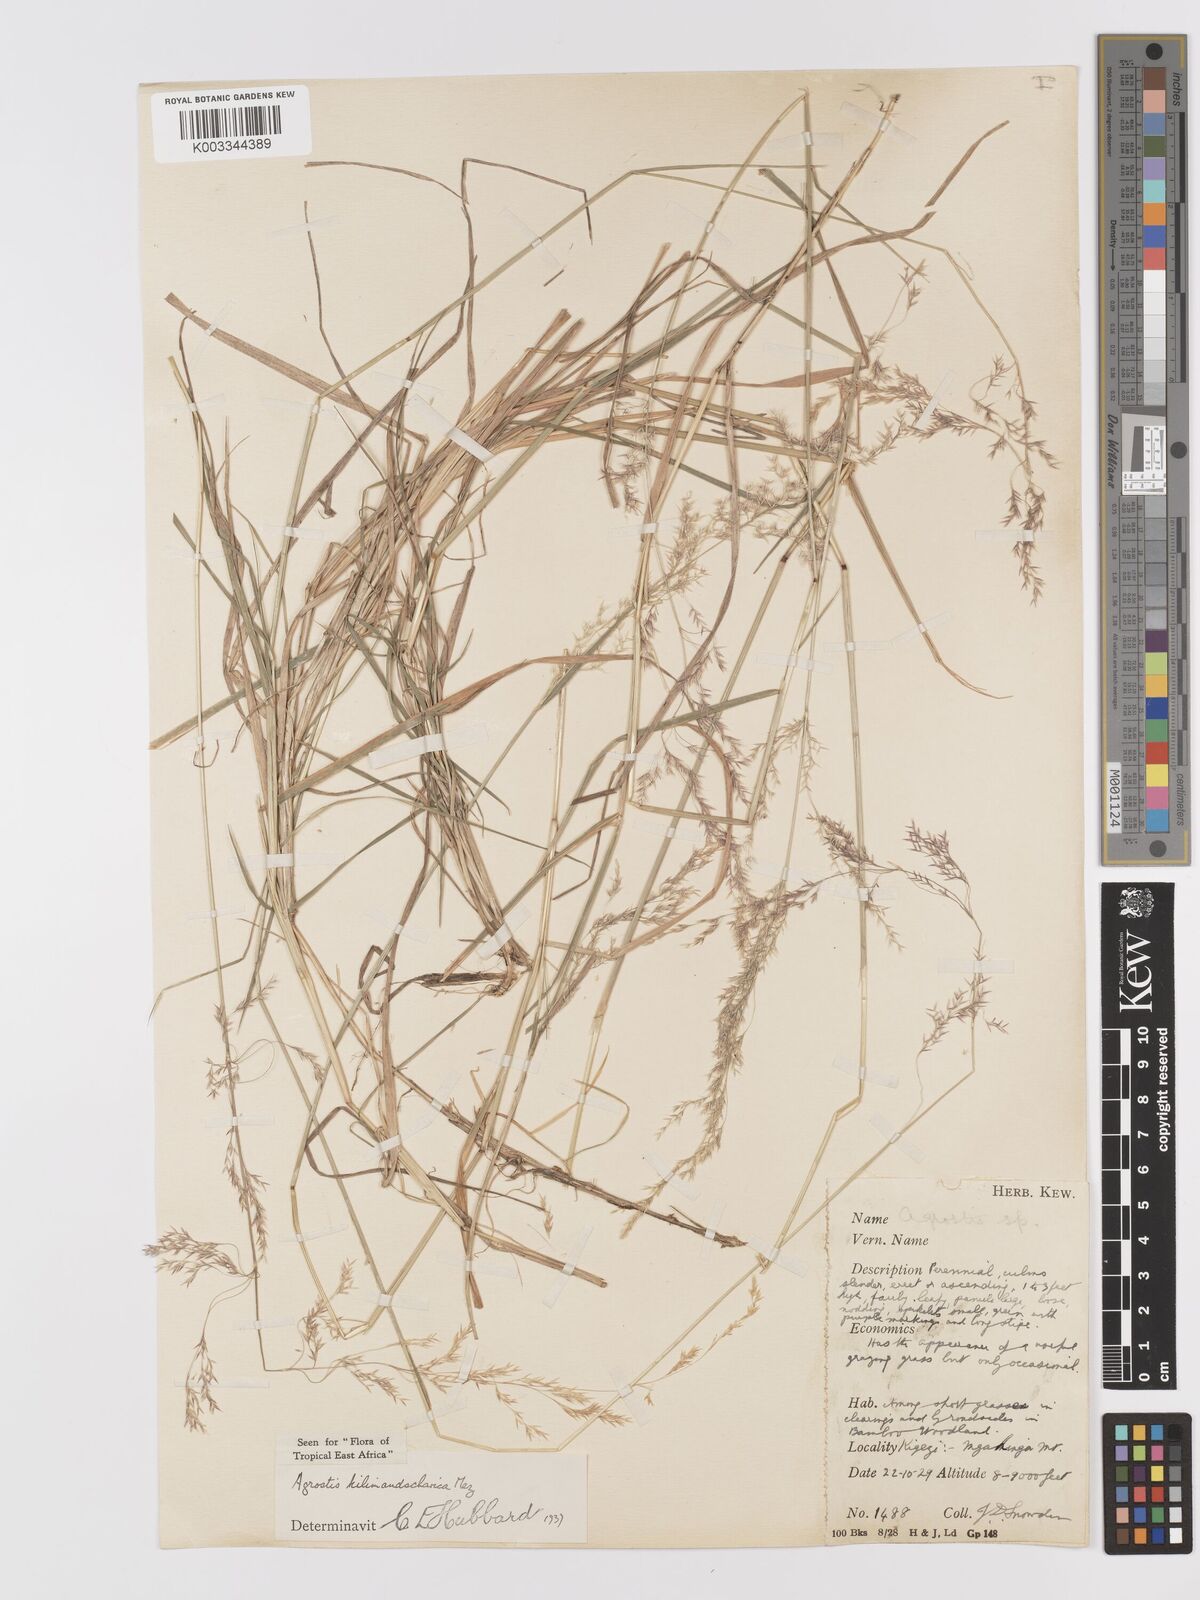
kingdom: Plantae
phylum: Tracheophyta
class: Liliopsida
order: Poales
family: Poaceae
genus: Agrostis
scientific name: Agrostis kilimandscharica
